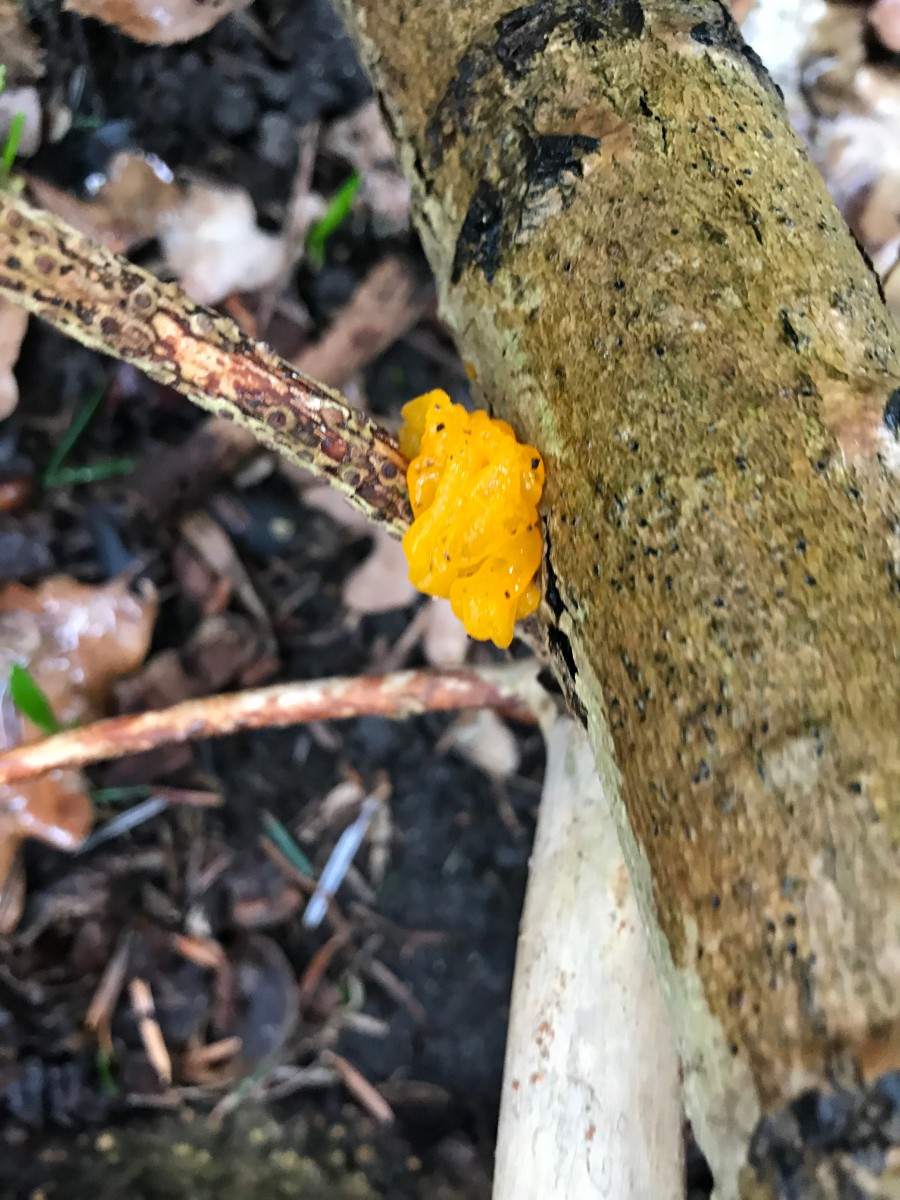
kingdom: Fungi
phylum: Basidiomycota
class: Tremellomycetes
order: Tremellales
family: Tremellaceae
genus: Tremella
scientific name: Tremella mesenterica
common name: gul bævresvamp
